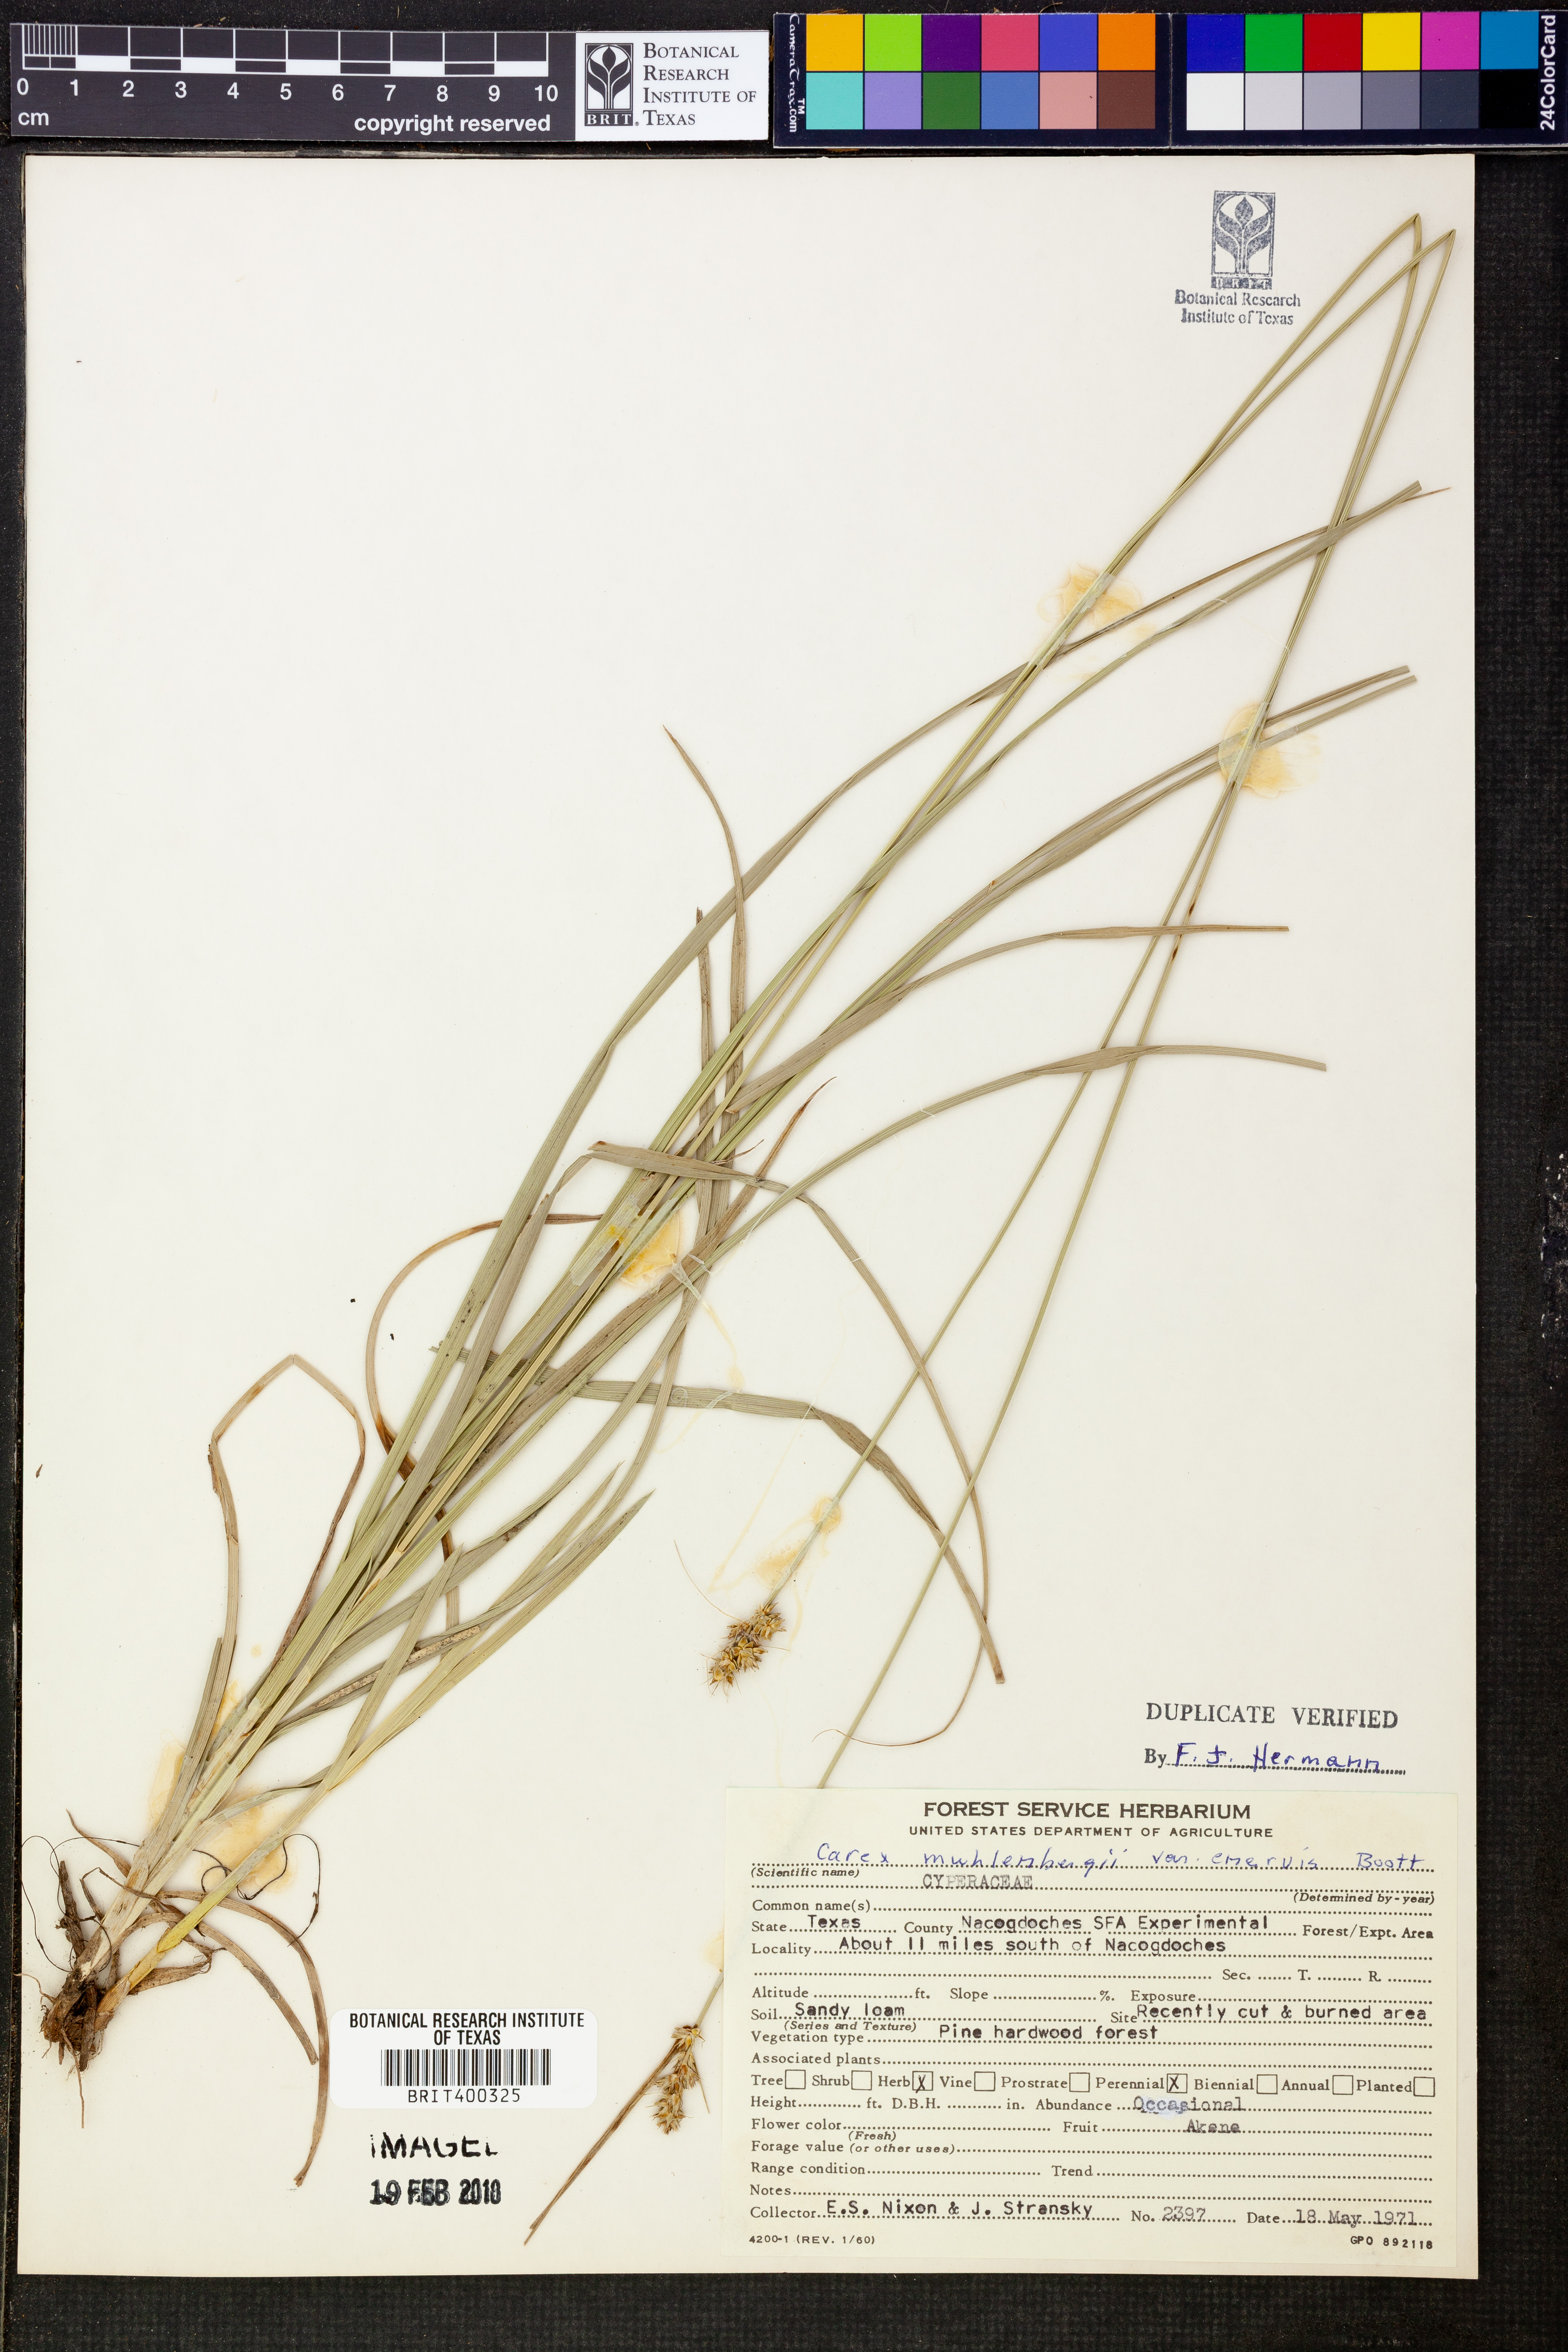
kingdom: Plantae
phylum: Tracheophyta
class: Liliopsida
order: Poales
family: Cyperaceae
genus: Carex
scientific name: Carex vulpinoidea
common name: American fox-sedge
